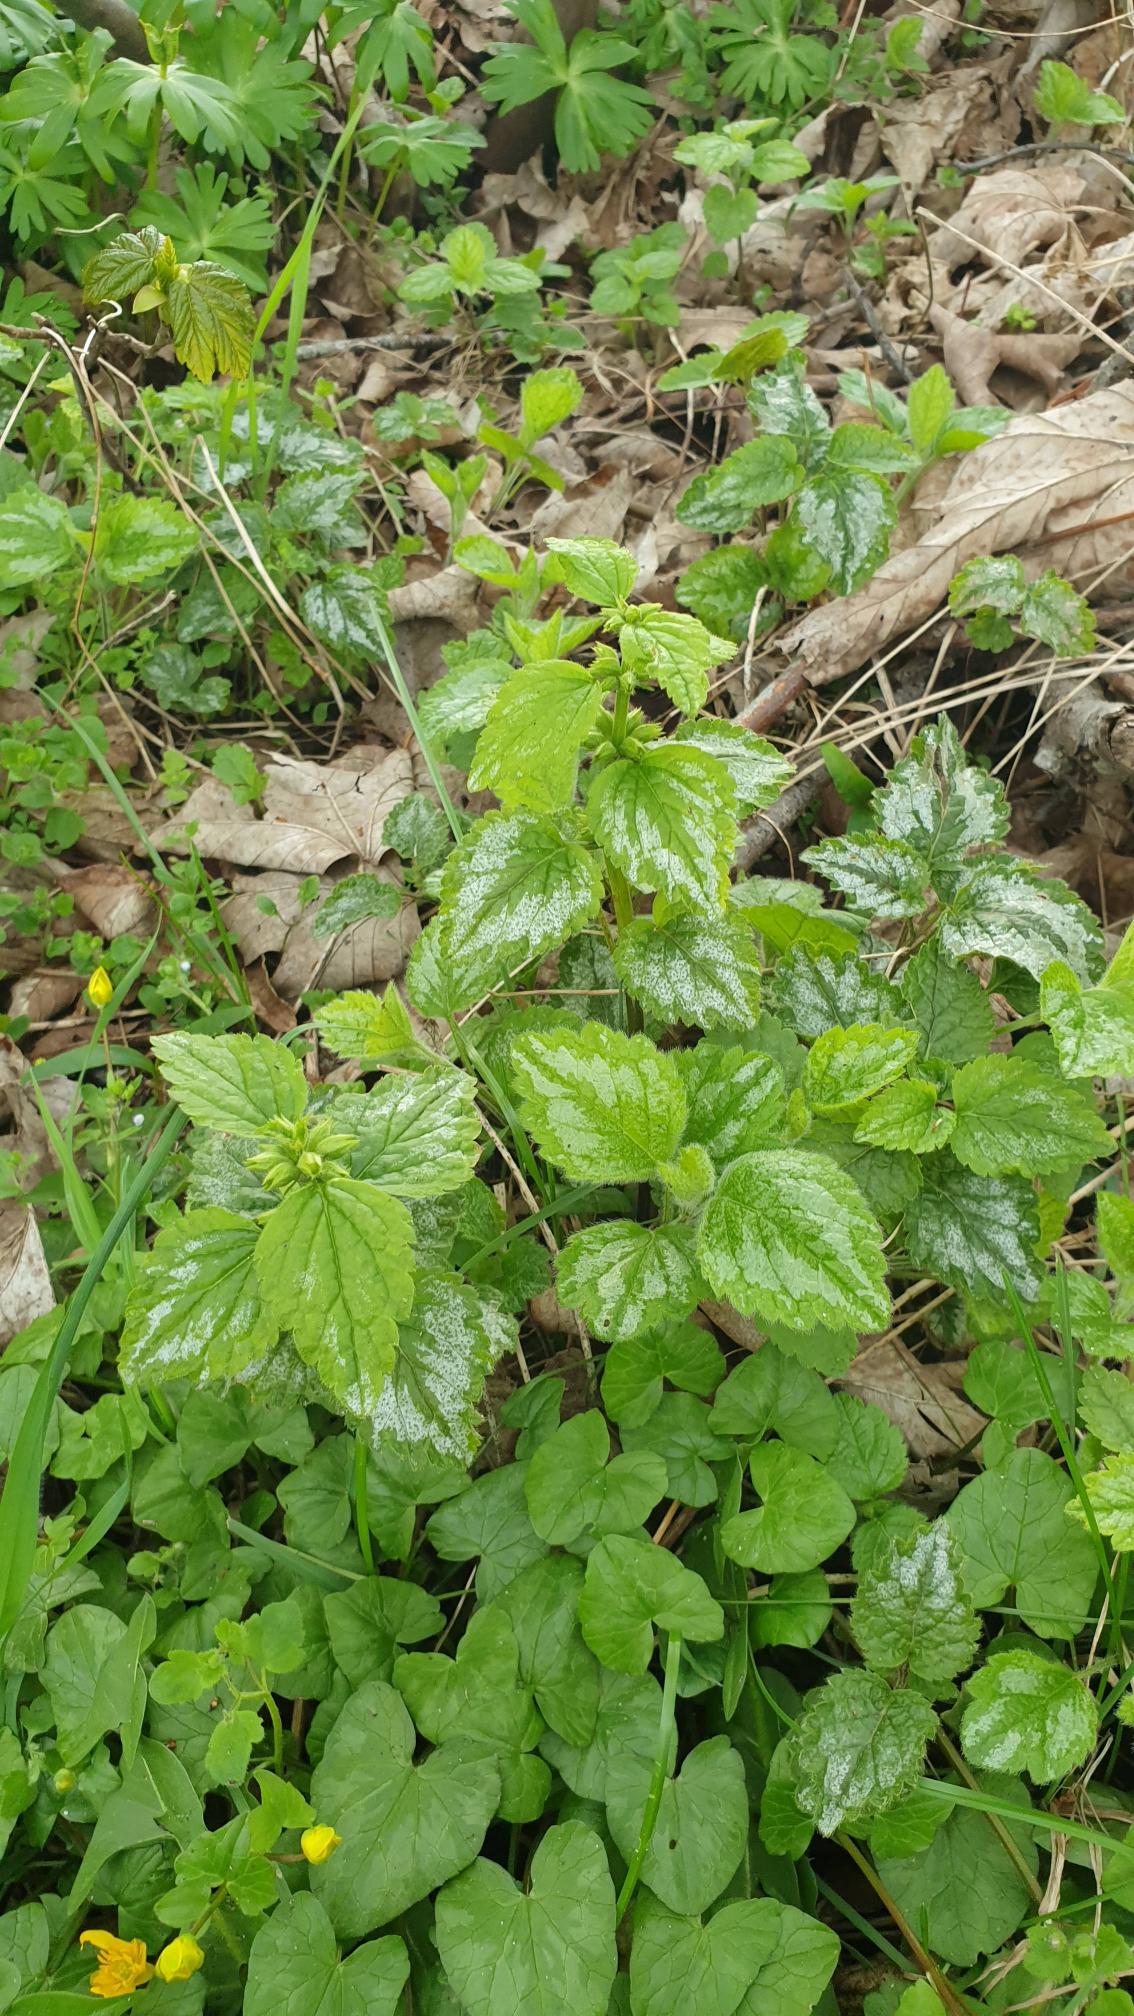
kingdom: Plantae
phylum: Tracheophyta
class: Magnoliopsida
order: Lamiales
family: Lamiaceae
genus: Lamium
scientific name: Lamium galeobdolon
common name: Have-guldnælde
